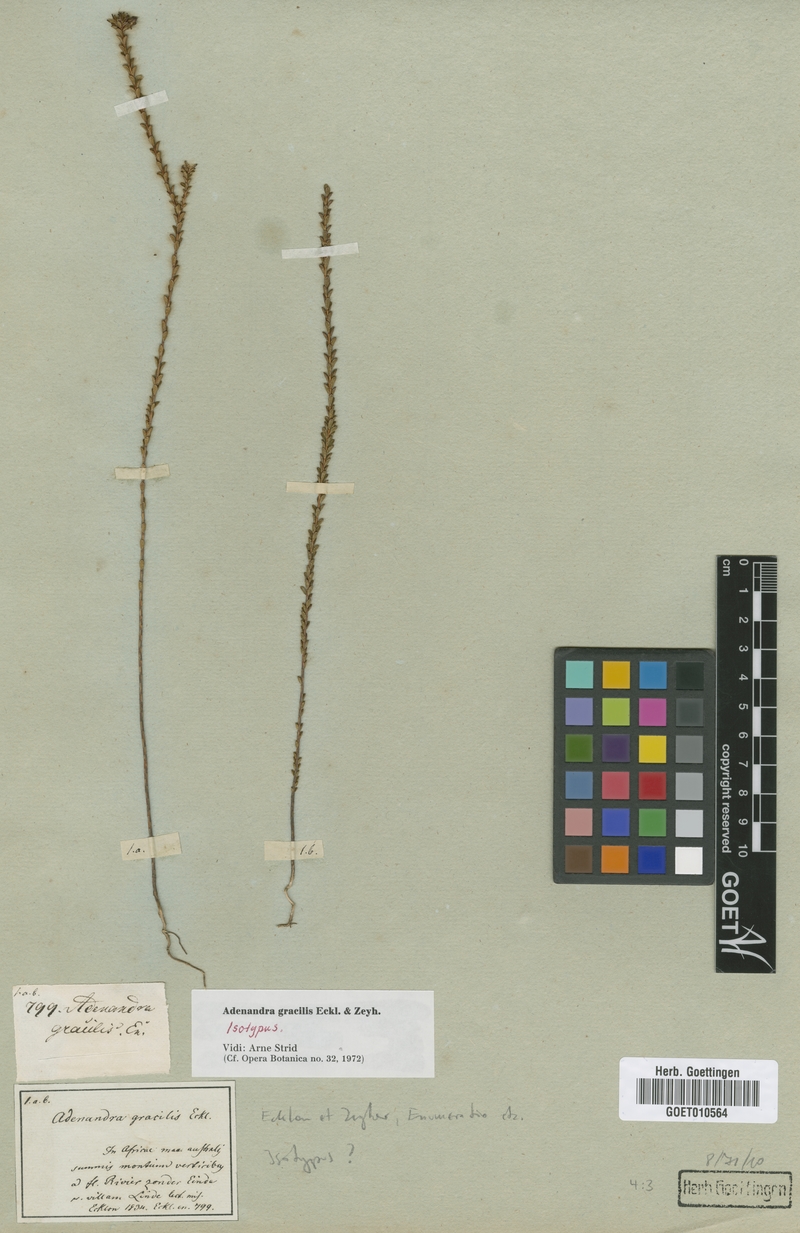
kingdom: Plantae
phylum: Tracheophyta
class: Magnoliopsida
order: Sapindales
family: Rutaceae
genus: Adenandra
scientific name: Adenandra gracilis
